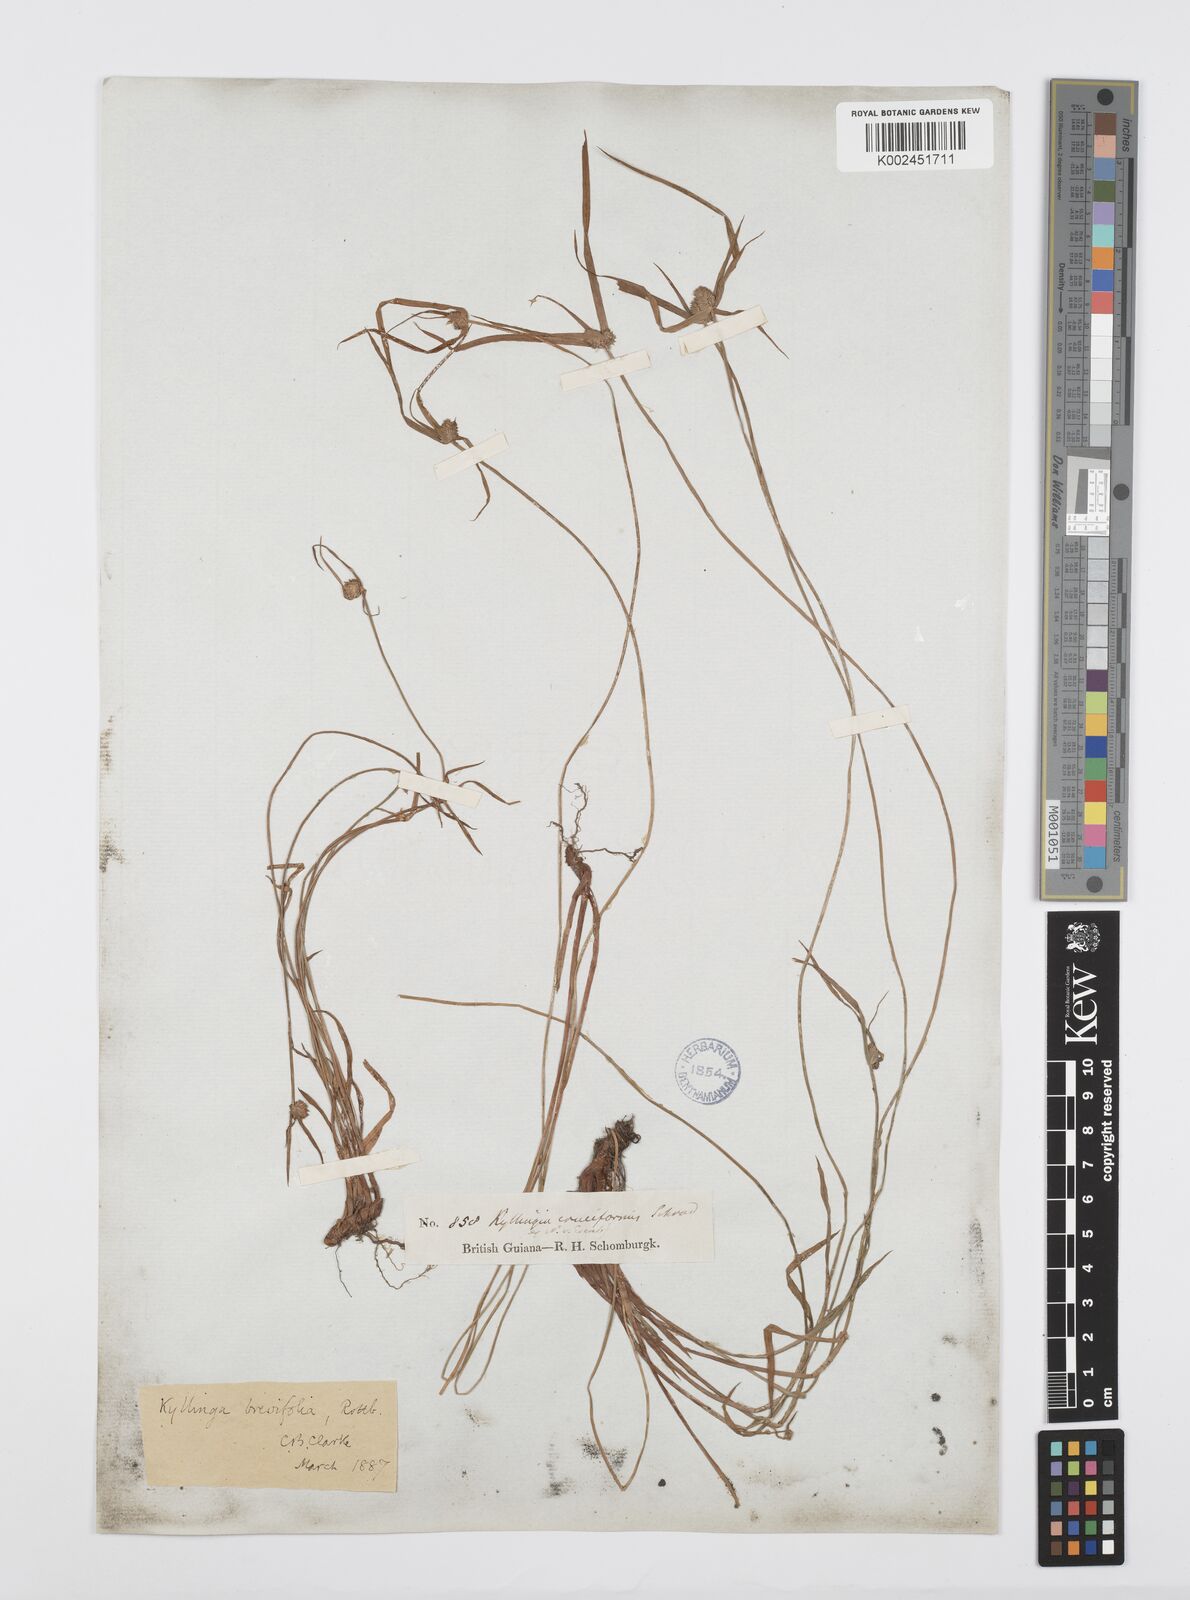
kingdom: Plantae
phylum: Tracheophyta
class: Liliopsida
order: Poales
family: Cyperaceae
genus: Cyperus
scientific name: Cyperus brevifolius
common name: Globe kyllinga
